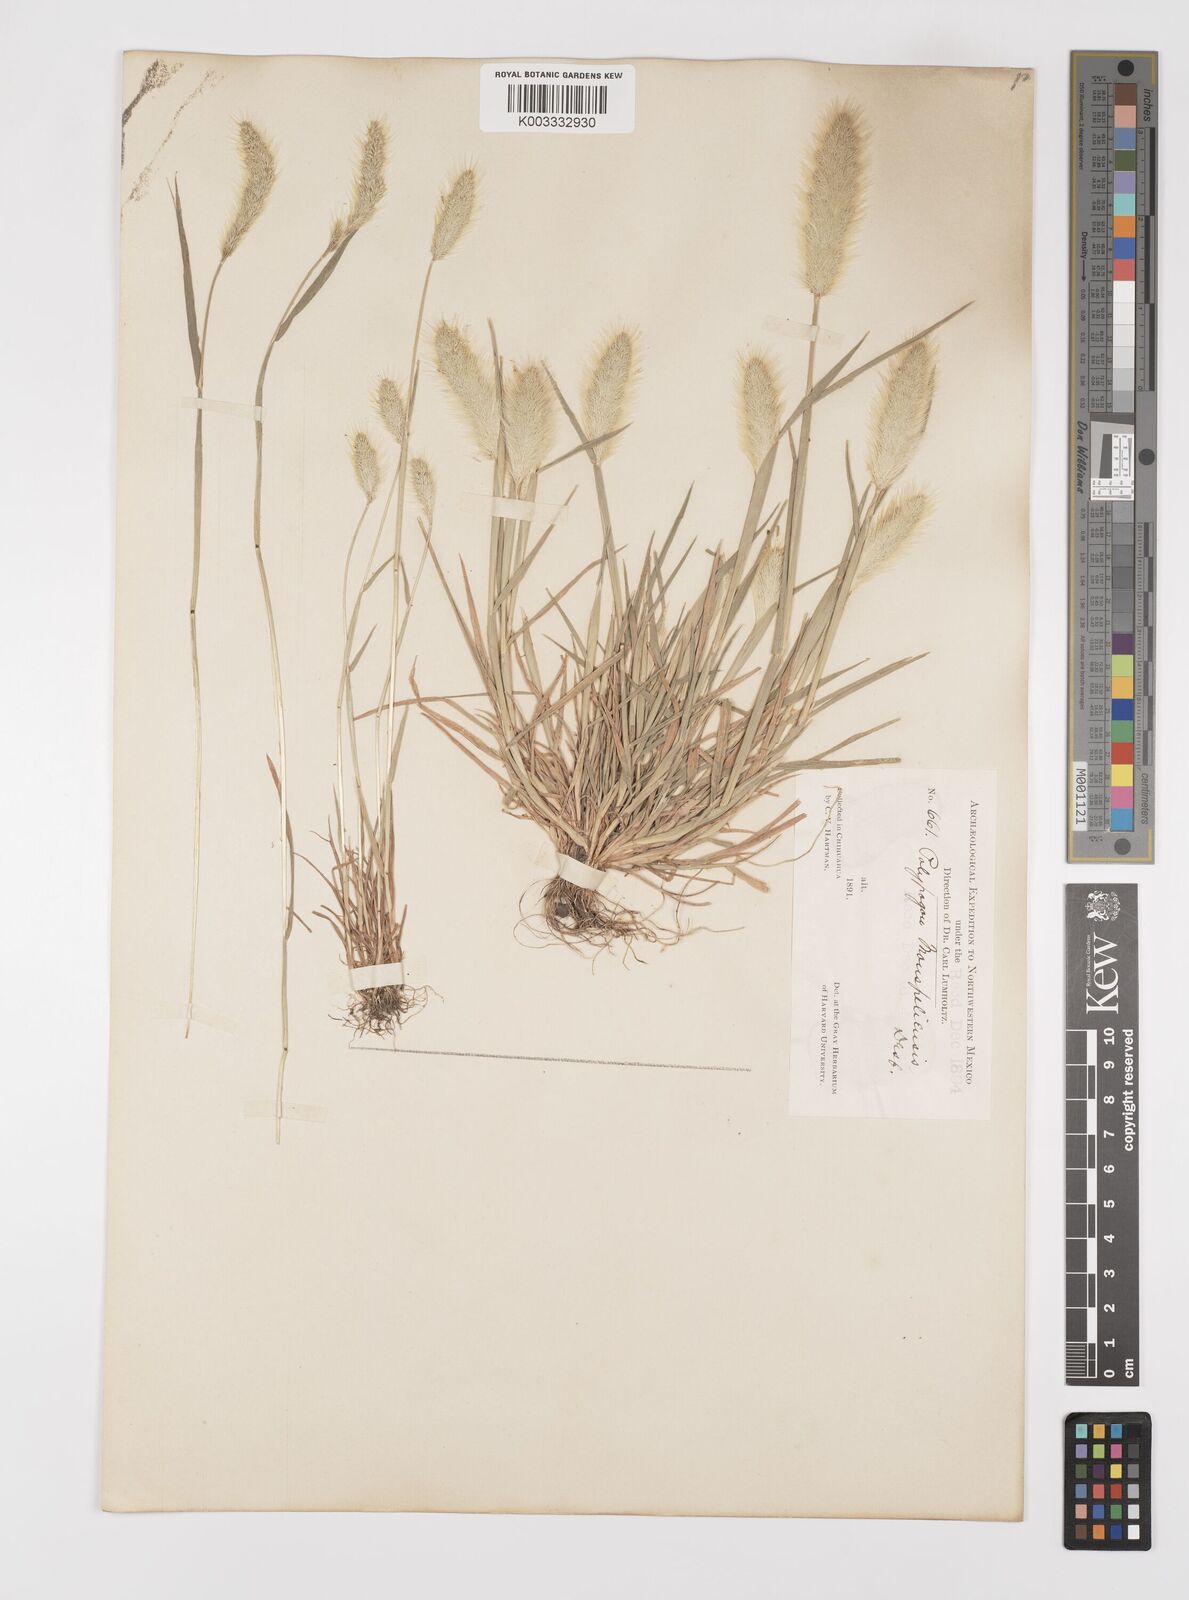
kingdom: Plantae
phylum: Tracheophyta
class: Liliopsida
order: Poales
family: Poaceae
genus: Polypogon
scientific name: Polypogon monspeliensis
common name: Annual rabbitsfoot grass
